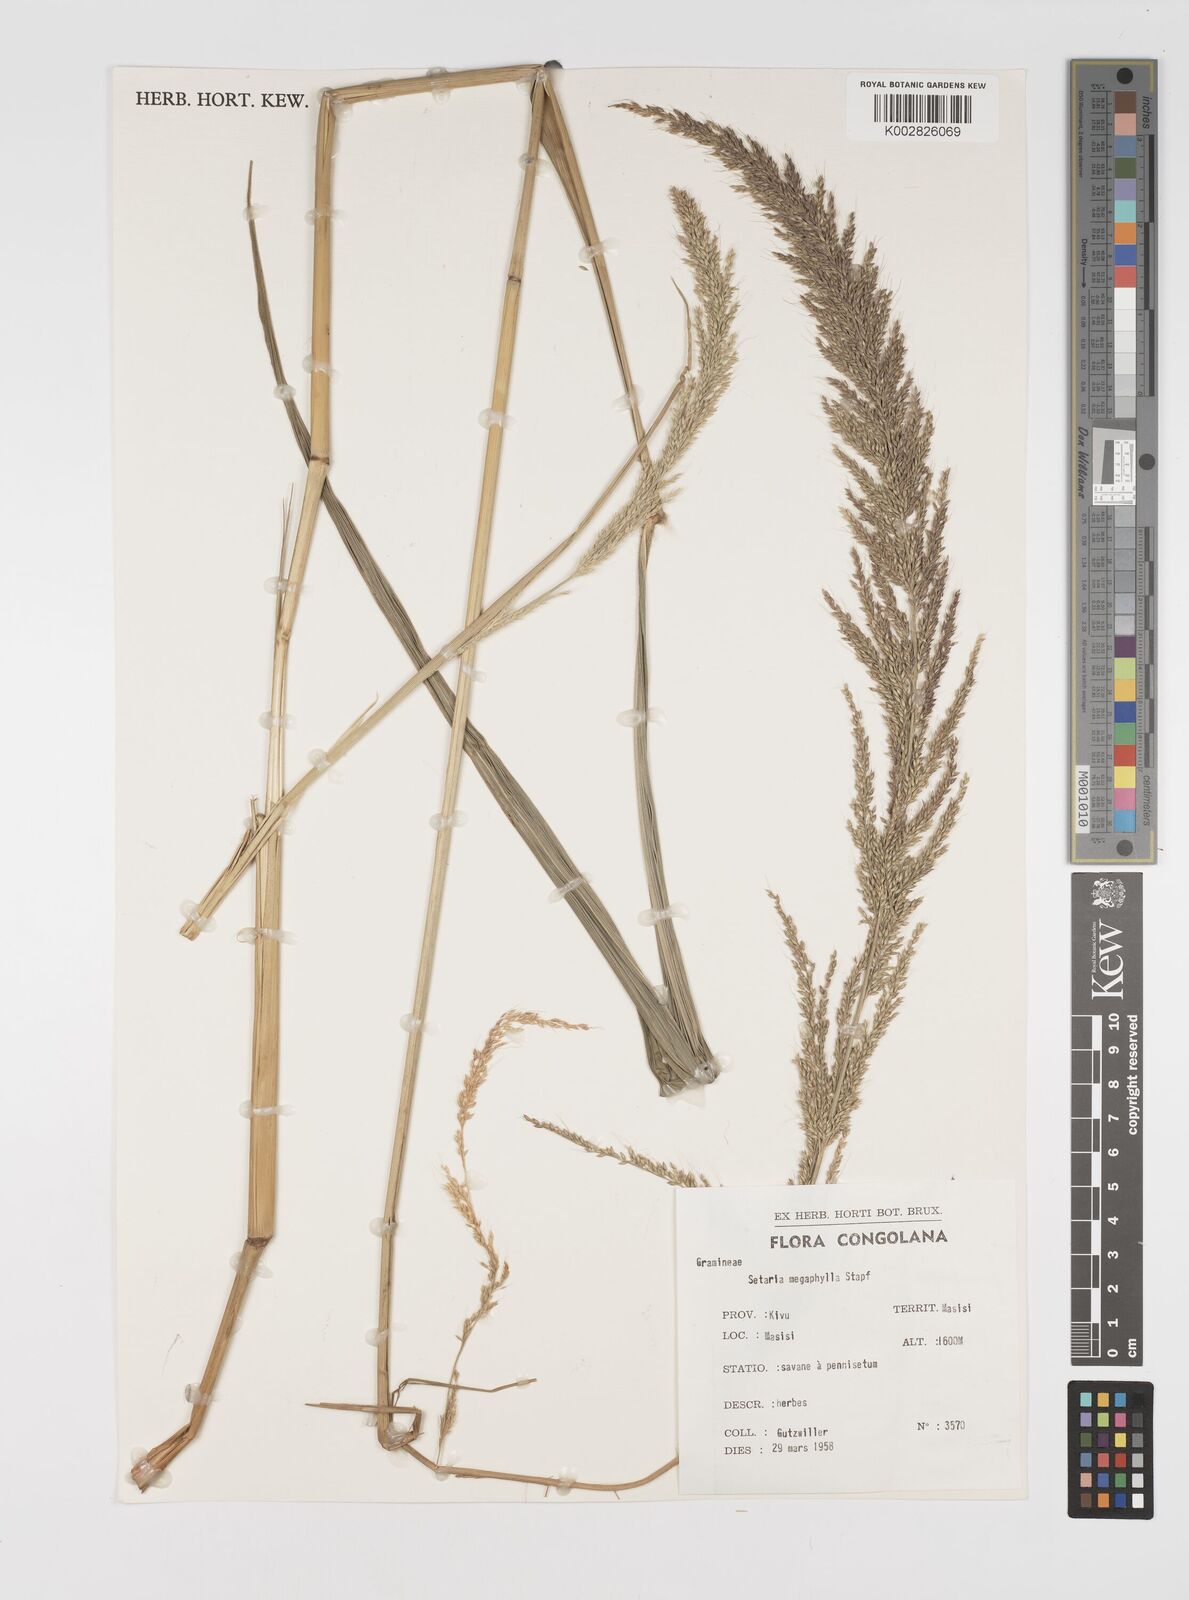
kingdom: Plantae
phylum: Tracheophyta
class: Liliopsida
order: Poales
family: Poaceae
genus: Setaria
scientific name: Setaria megaphylla
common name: Bigleaf bristlegrass
